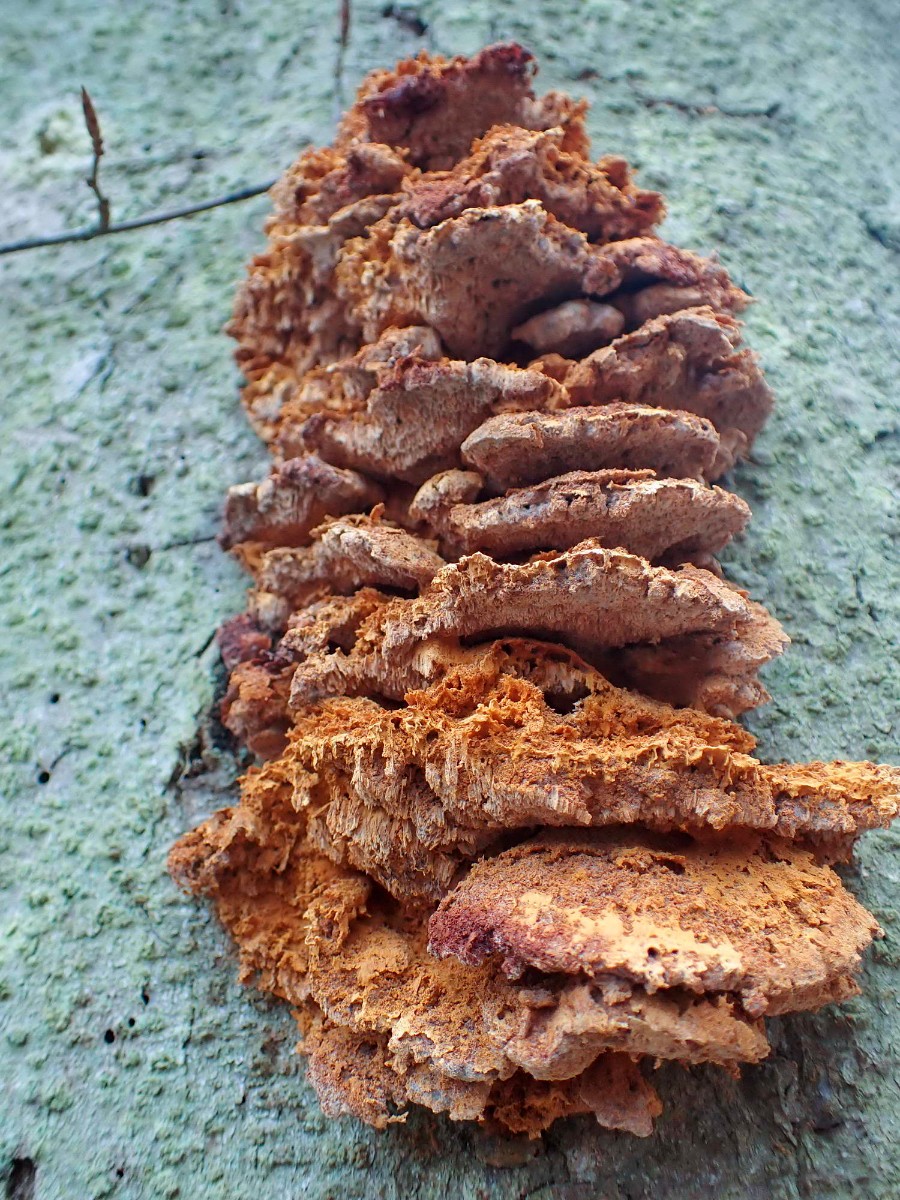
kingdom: Fungi
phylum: Basidiomycota
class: Agaricomycetes
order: Polyporales
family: Pycnoporellaceae
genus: Pycnoporellus
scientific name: Pycnoporellus fulgens
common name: flammeporesvamp
